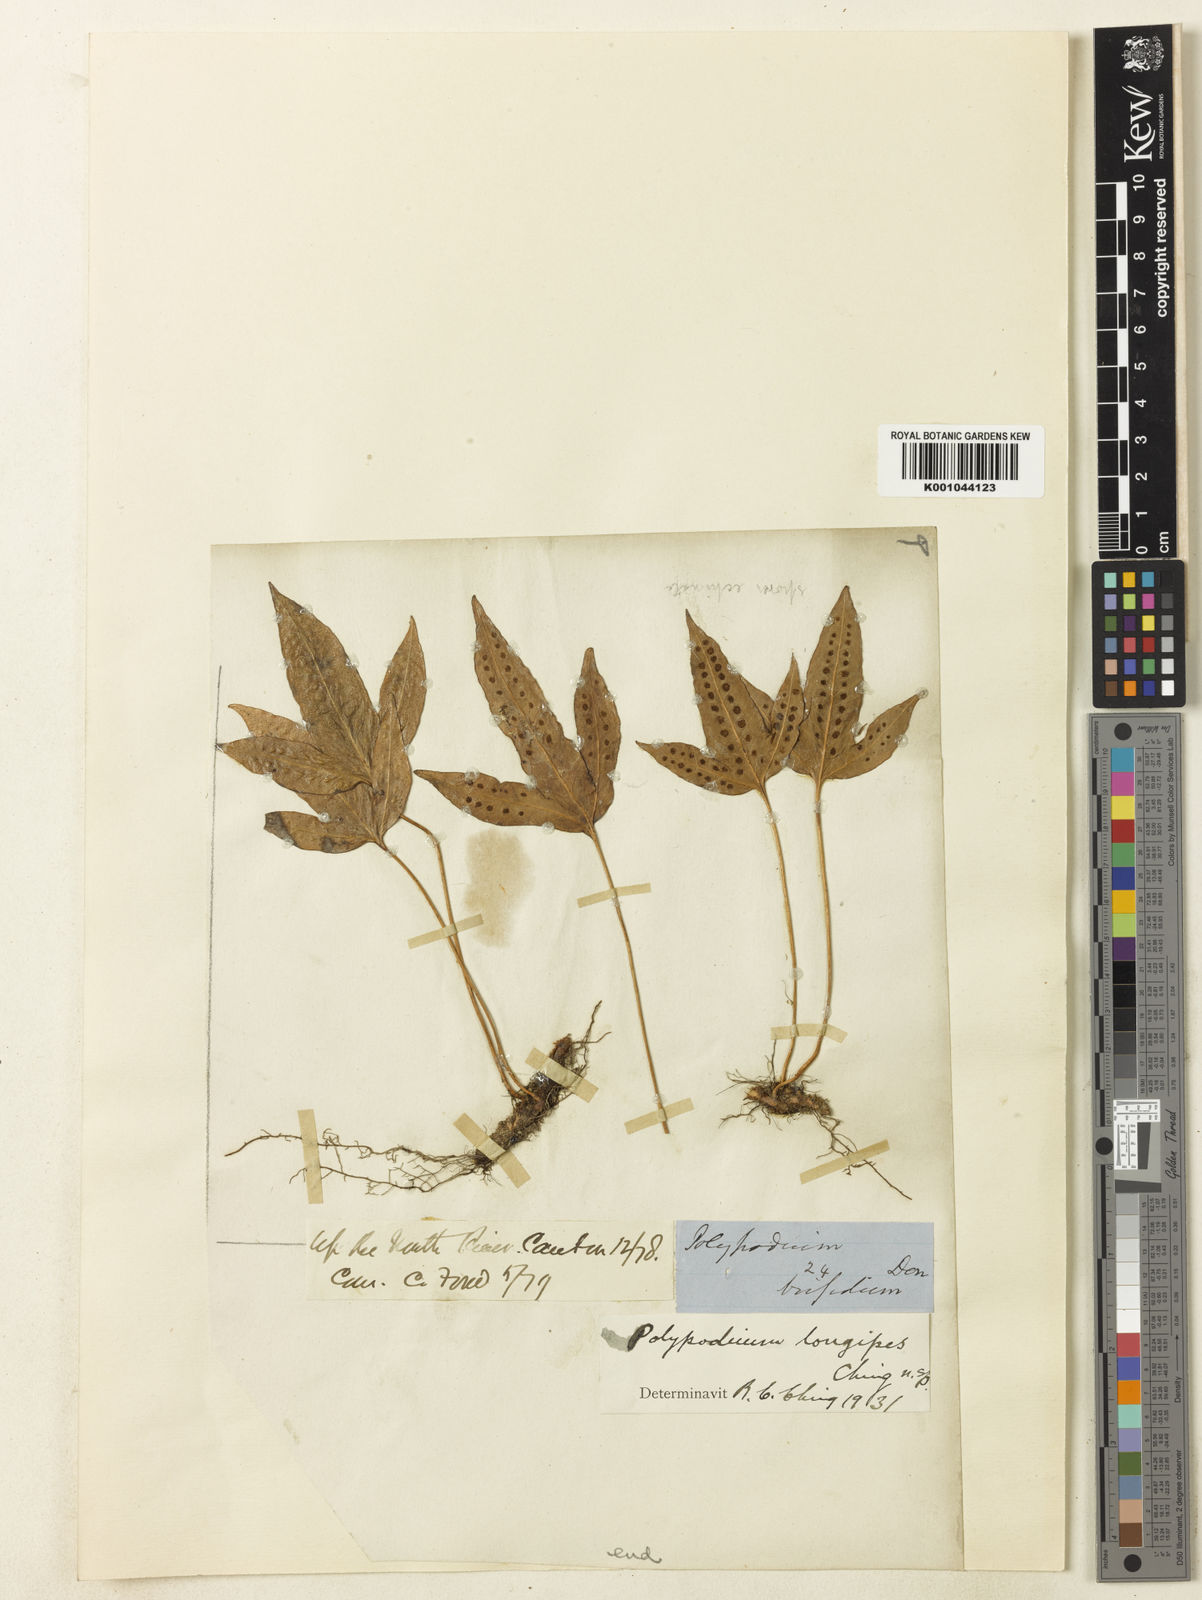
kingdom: Plantae
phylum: Tracheophyta
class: Polypodiopsida
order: Polypodiales
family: Polypodiaceae
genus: Selliguea
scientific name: Selliguea
